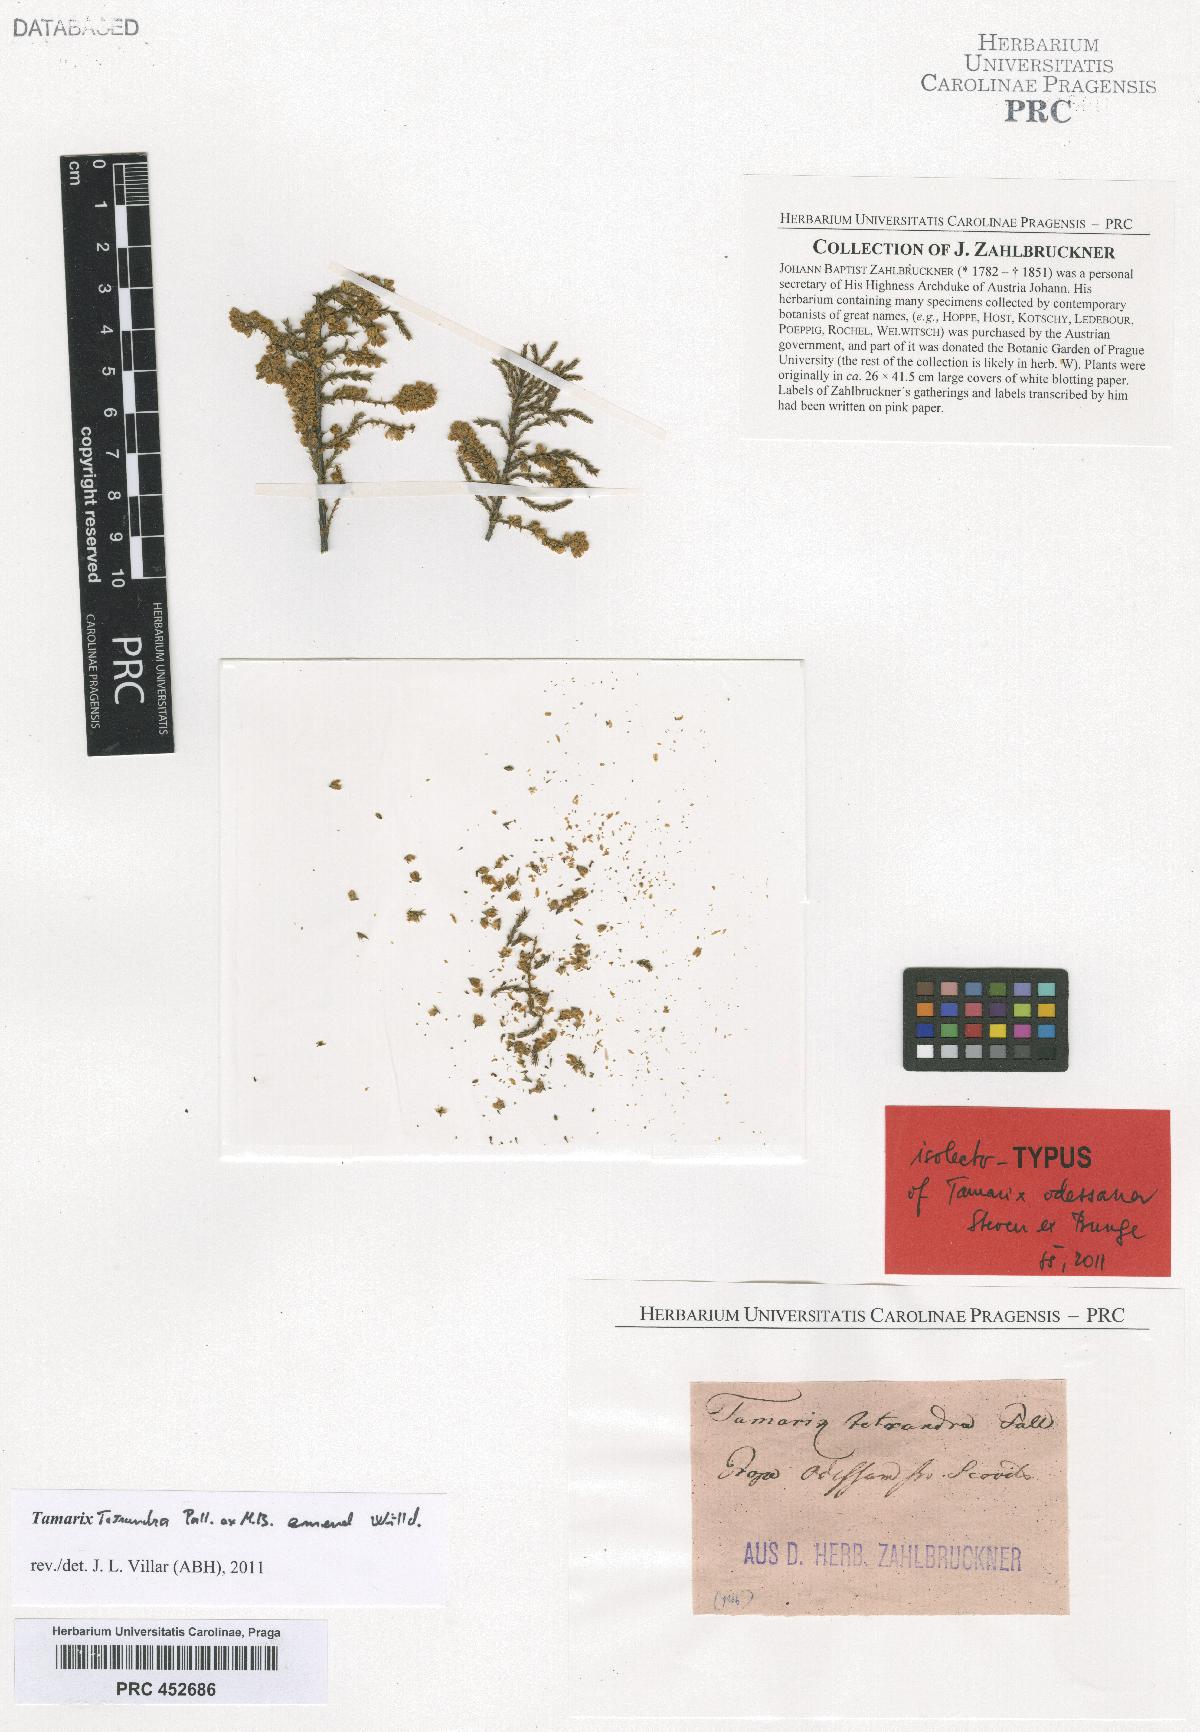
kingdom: Plantae
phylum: Tracheophyta
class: Magnoliopsida
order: Caryophyllales
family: Tamaricaceae
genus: Tamarix
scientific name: Tamarix ramosissima
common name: Pink tamarisk
